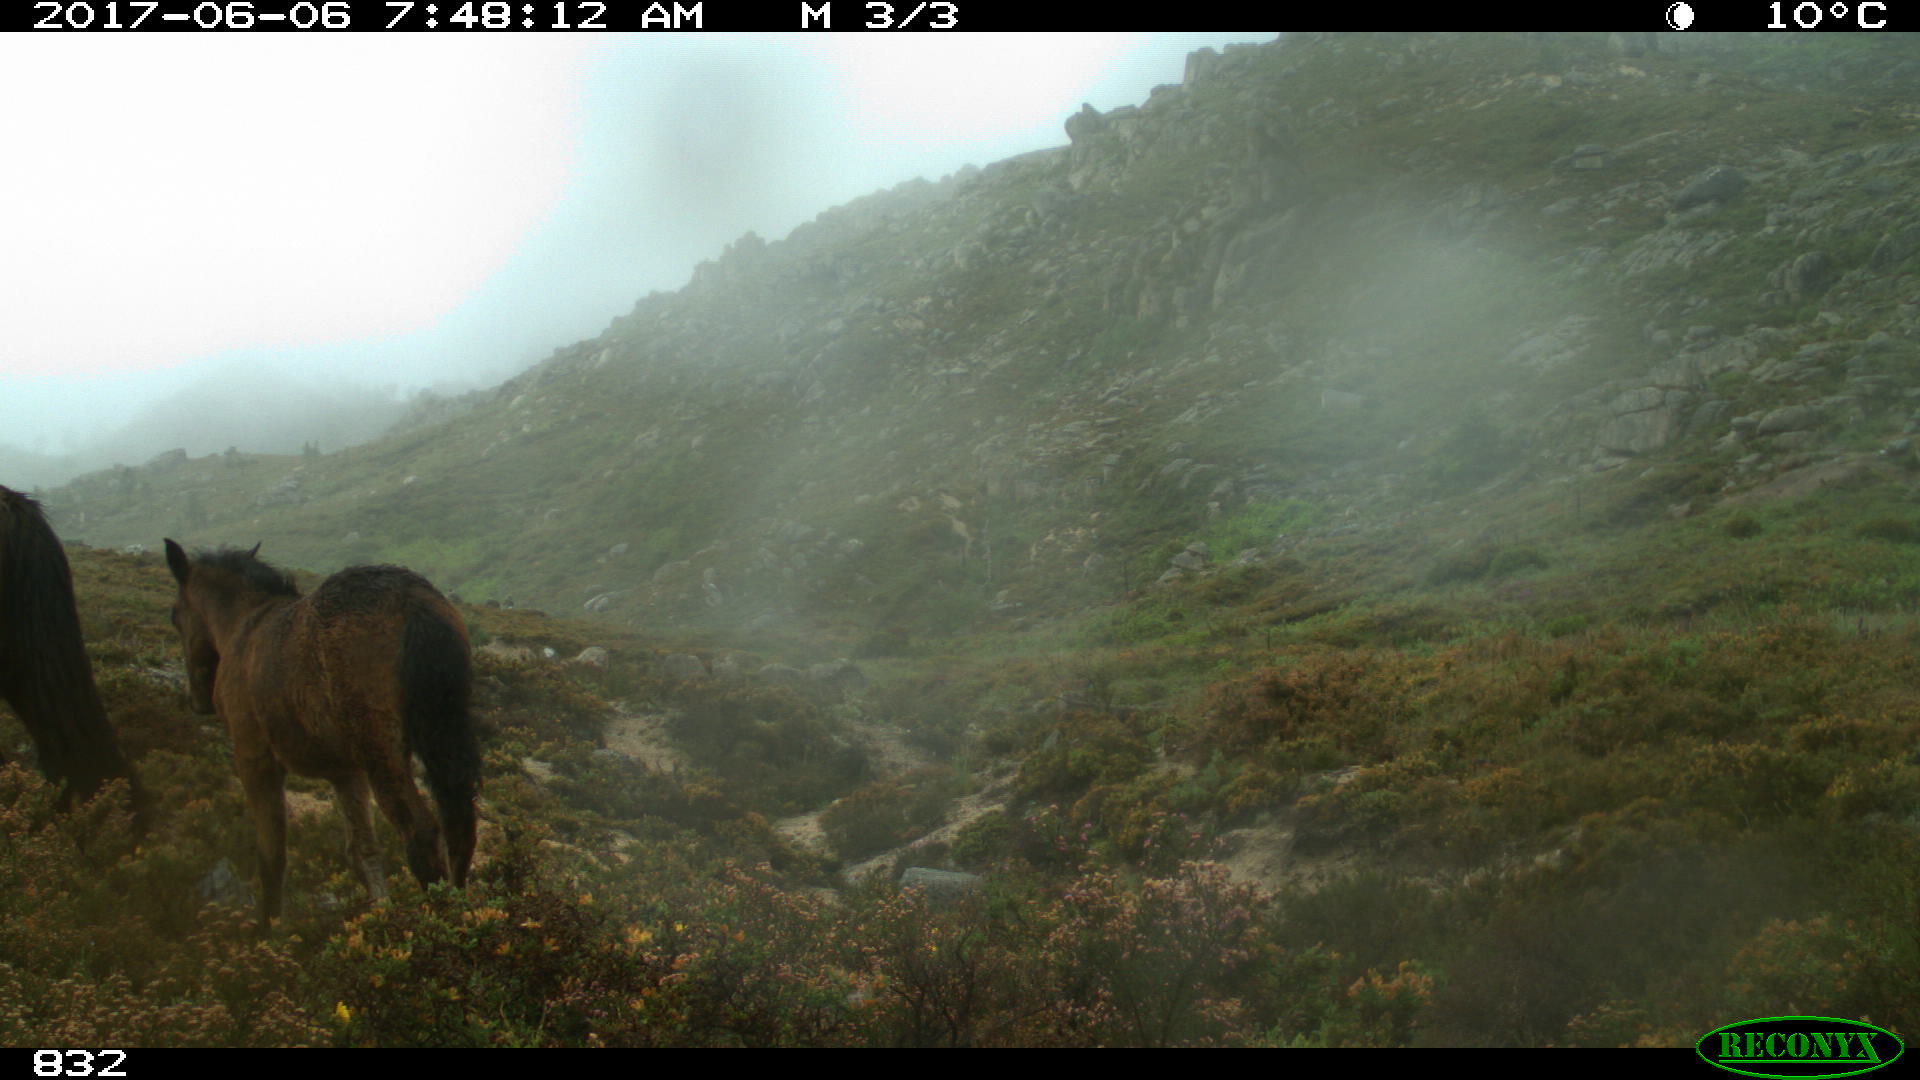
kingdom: Animalia
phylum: Chordata
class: Mammalia
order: Perissodactyla
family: Equidae
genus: Equus
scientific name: Equus caballus
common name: Horse
